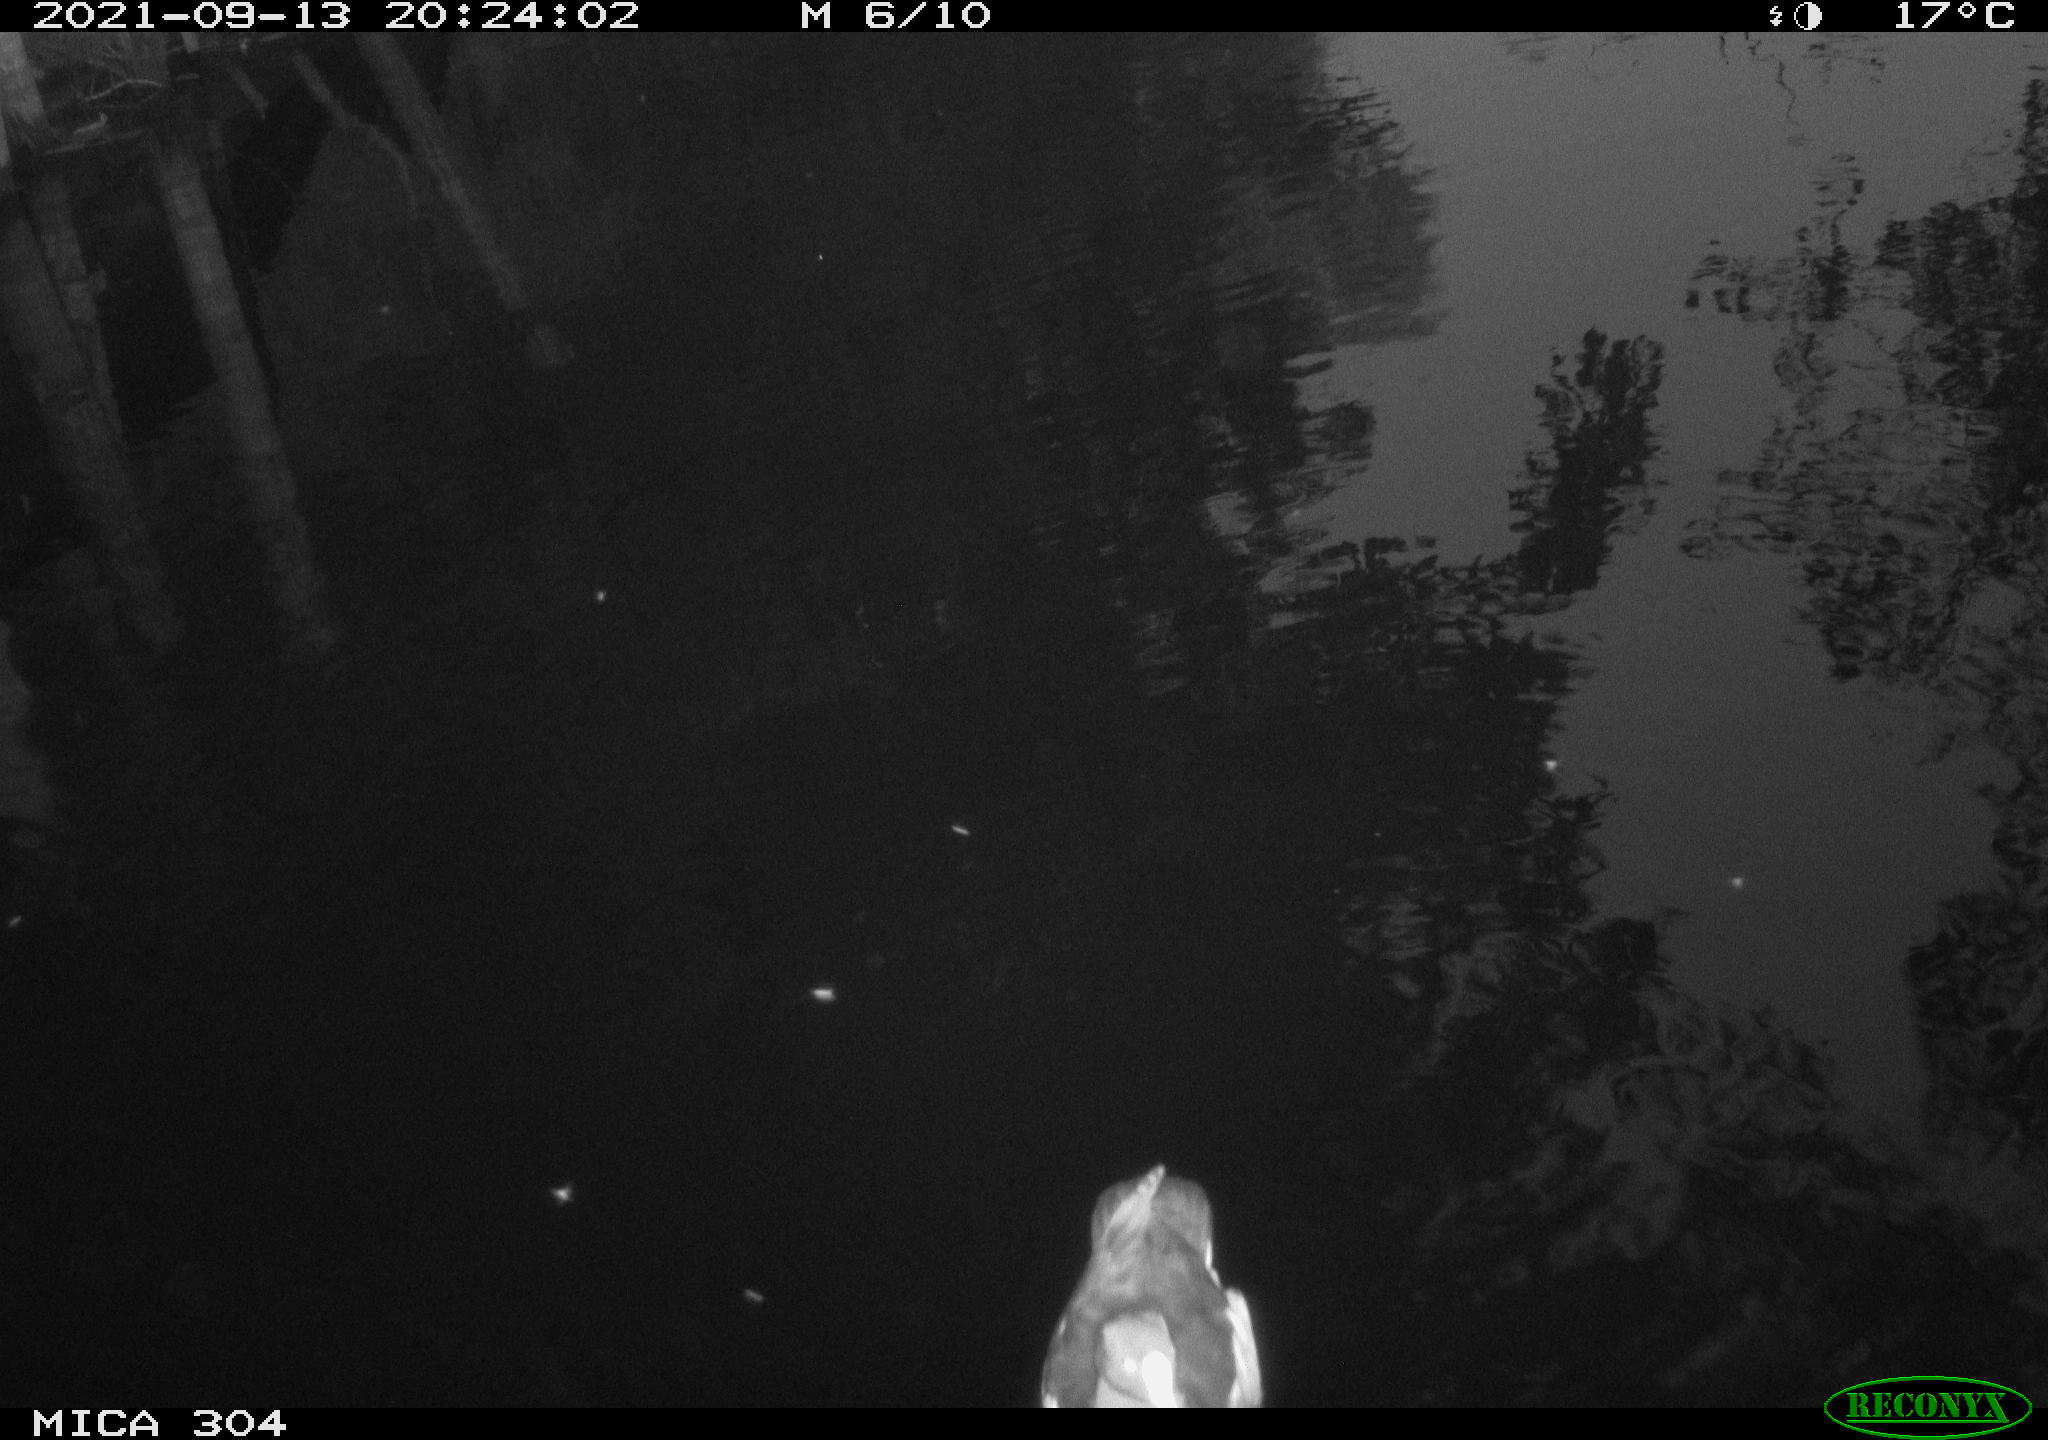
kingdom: Animalia
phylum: Chordata
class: Aves
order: Anseriformes
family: Anatidae
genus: Anas
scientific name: Anas platyrhynchos
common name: Mallard
